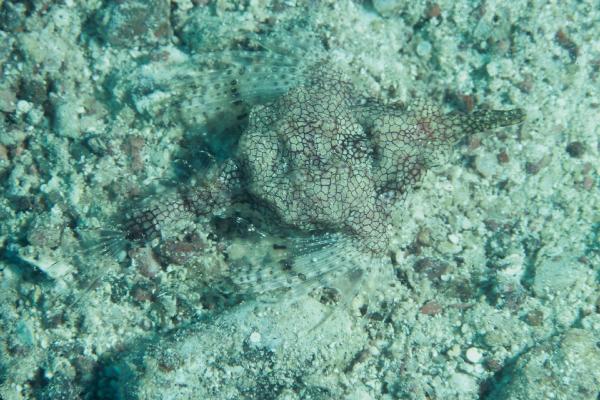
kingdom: Animalia
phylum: Chordata
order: Gasterosteiformes
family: Pegasidae
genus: Eurypegasus
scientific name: Eurypegasus draconis
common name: Short dragonfish
